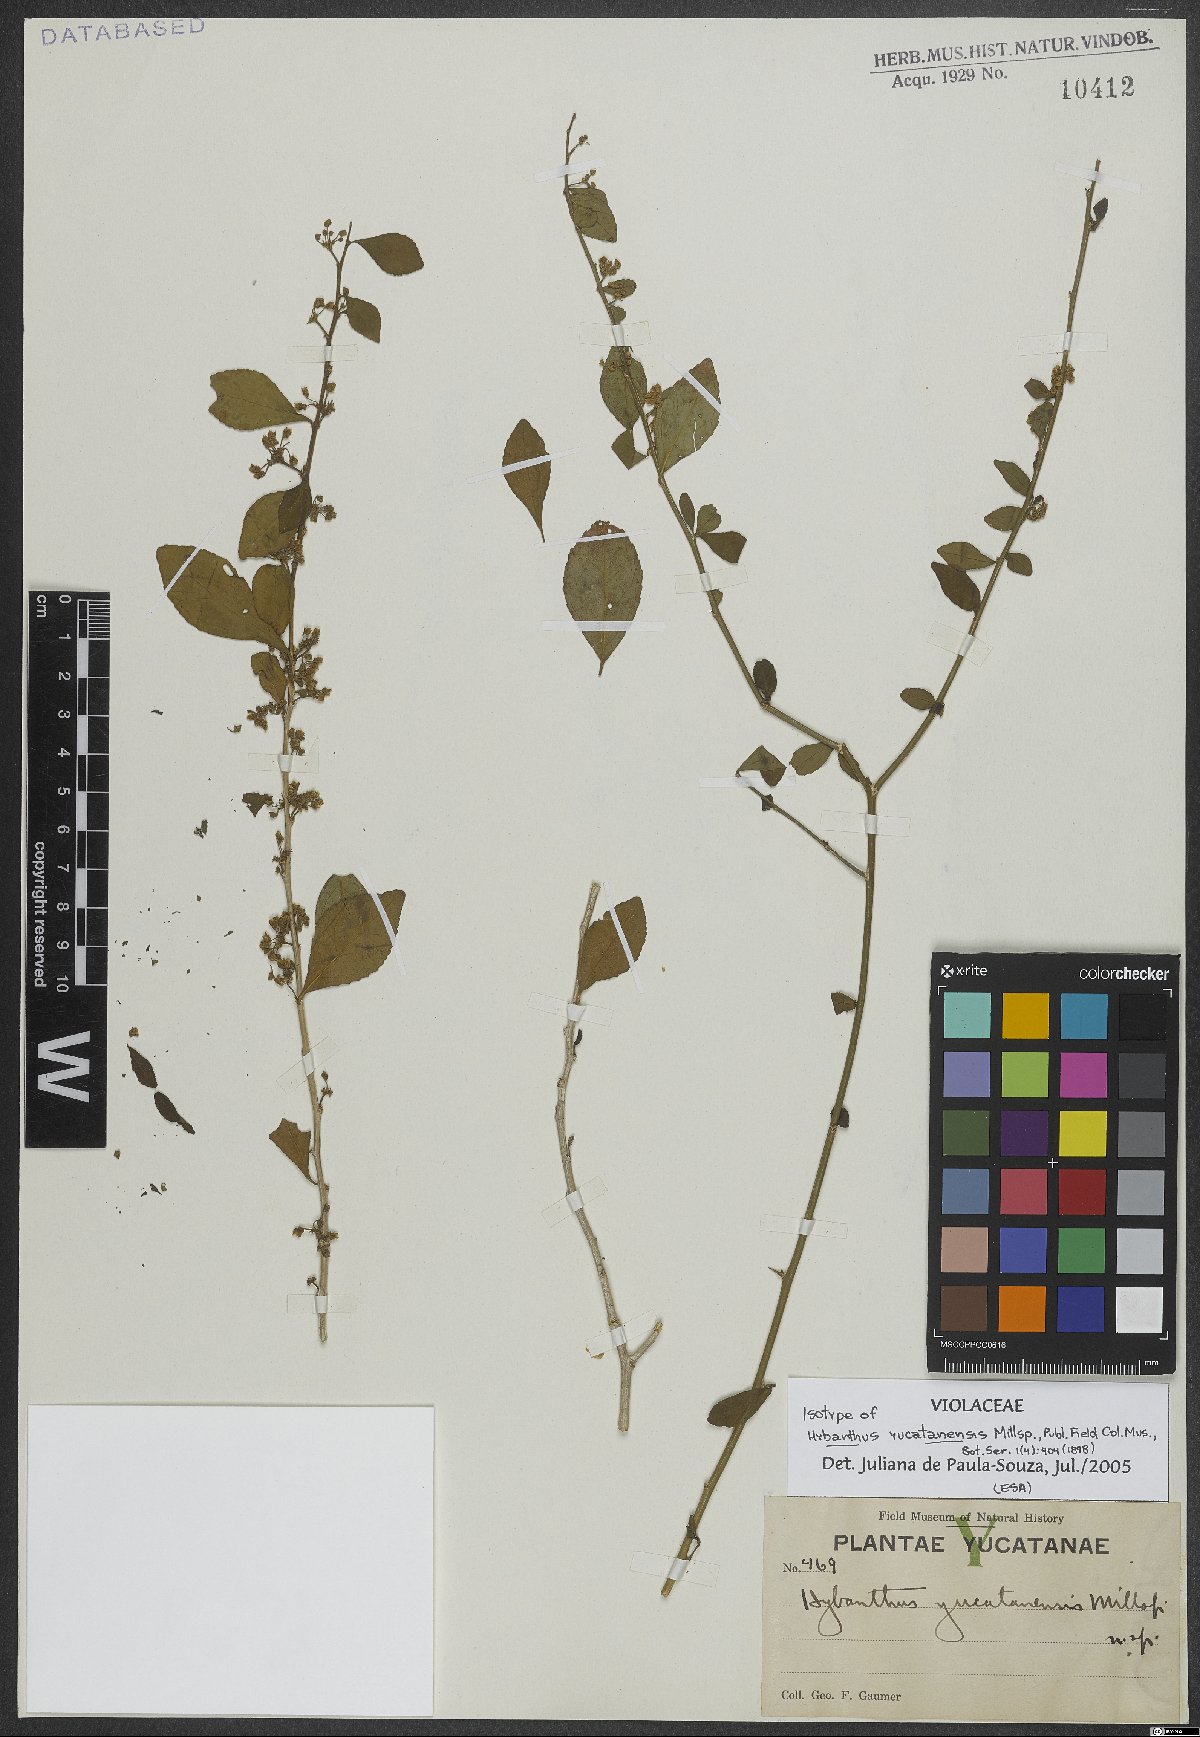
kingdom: Plantae
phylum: Tracheophyta
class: Magnoliopsida
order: Malpighiales
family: Violaceae
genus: Hybanthus
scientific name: Hybanthus yucatanensis
